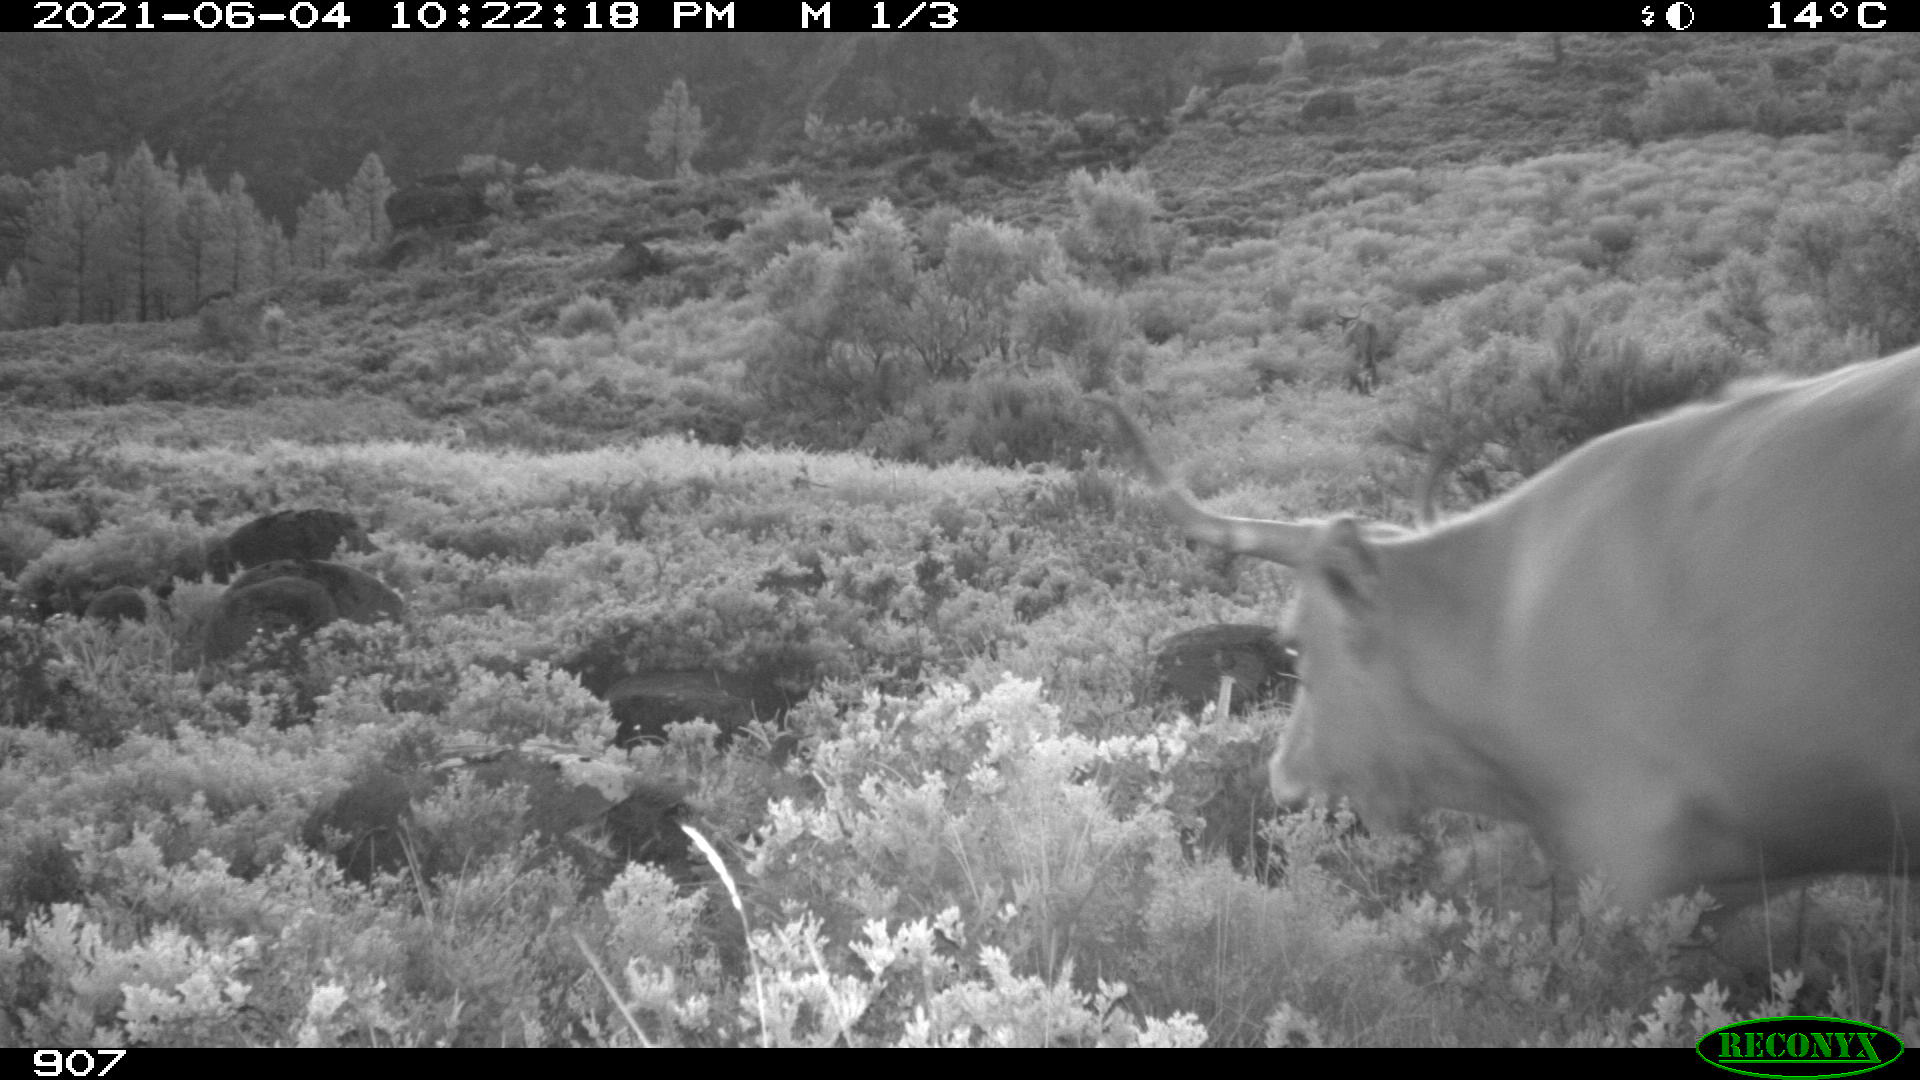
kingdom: Animalia
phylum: Chordata
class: Mammalia
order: Artiodactyla
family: Bovidae
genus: Bos
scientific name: Bos taurus
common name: Domesticated cattle
